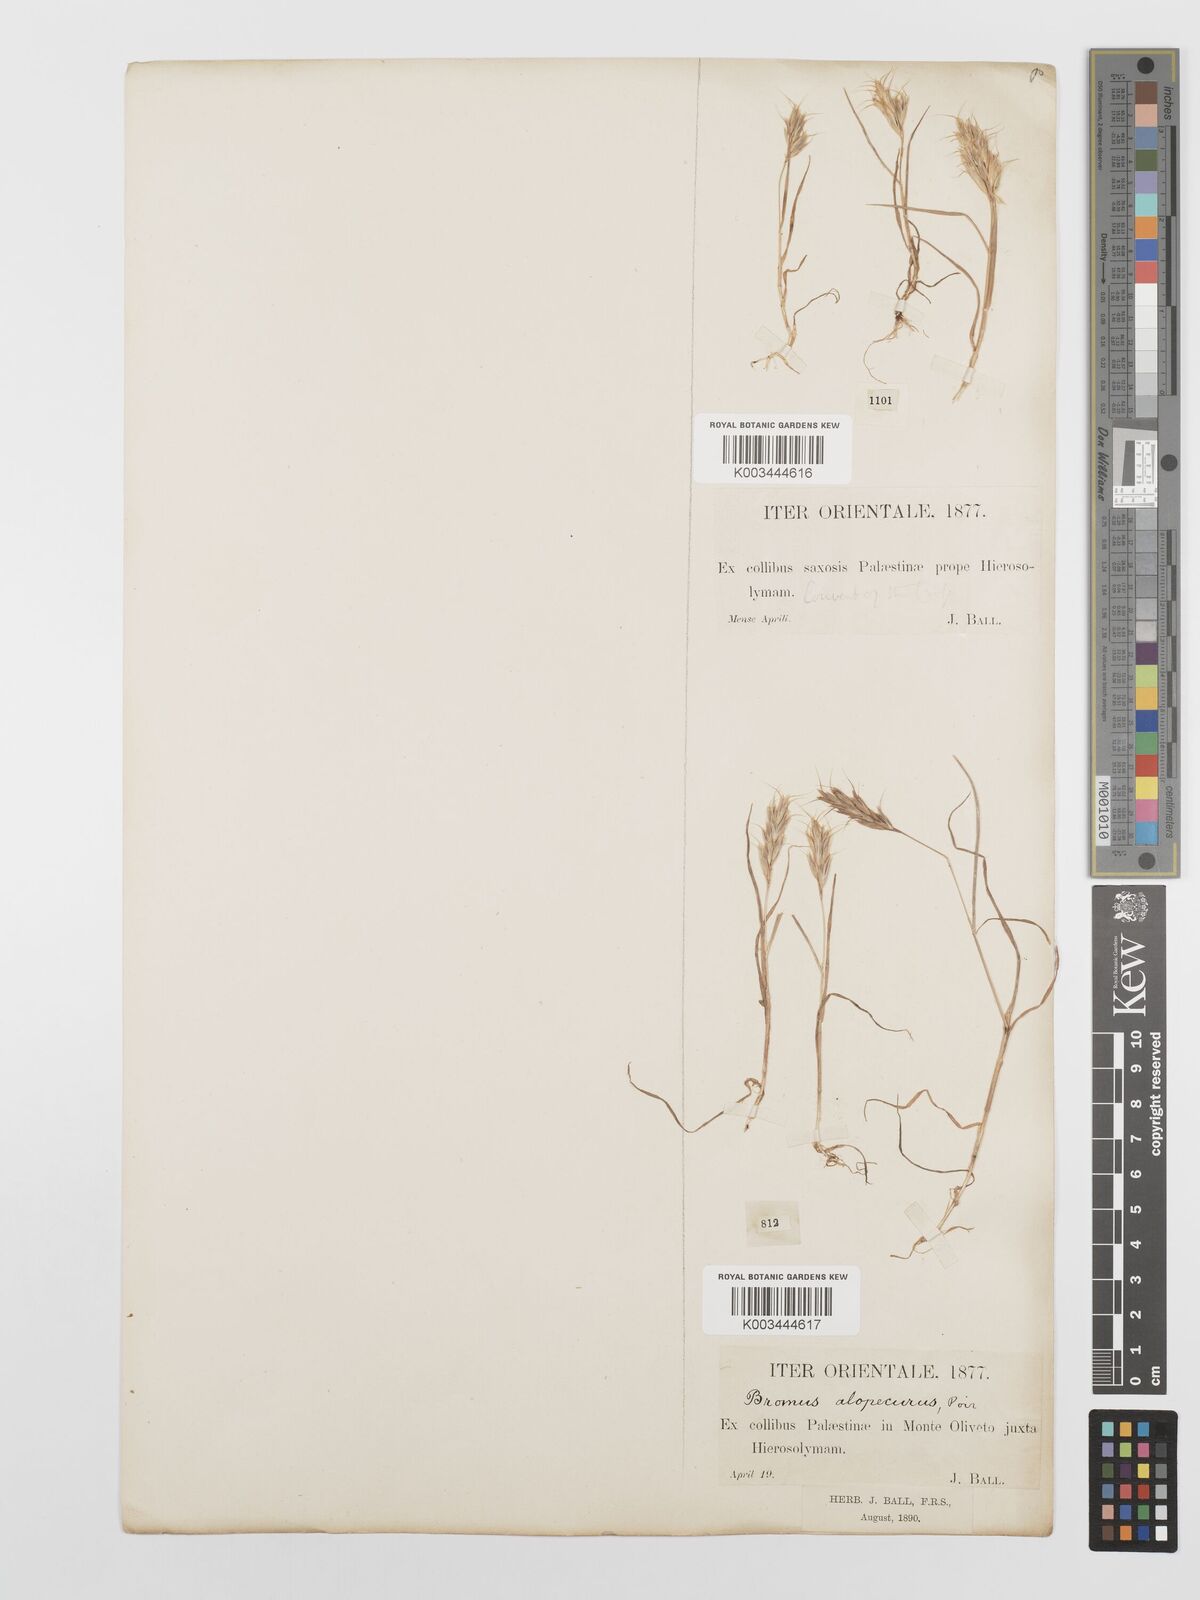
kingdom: Plantae
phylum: Tracheophyta
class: Liliopsida
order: Poales
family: Poaceae
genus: Bromus
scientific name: Bromus scoparius
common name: Broom brome
